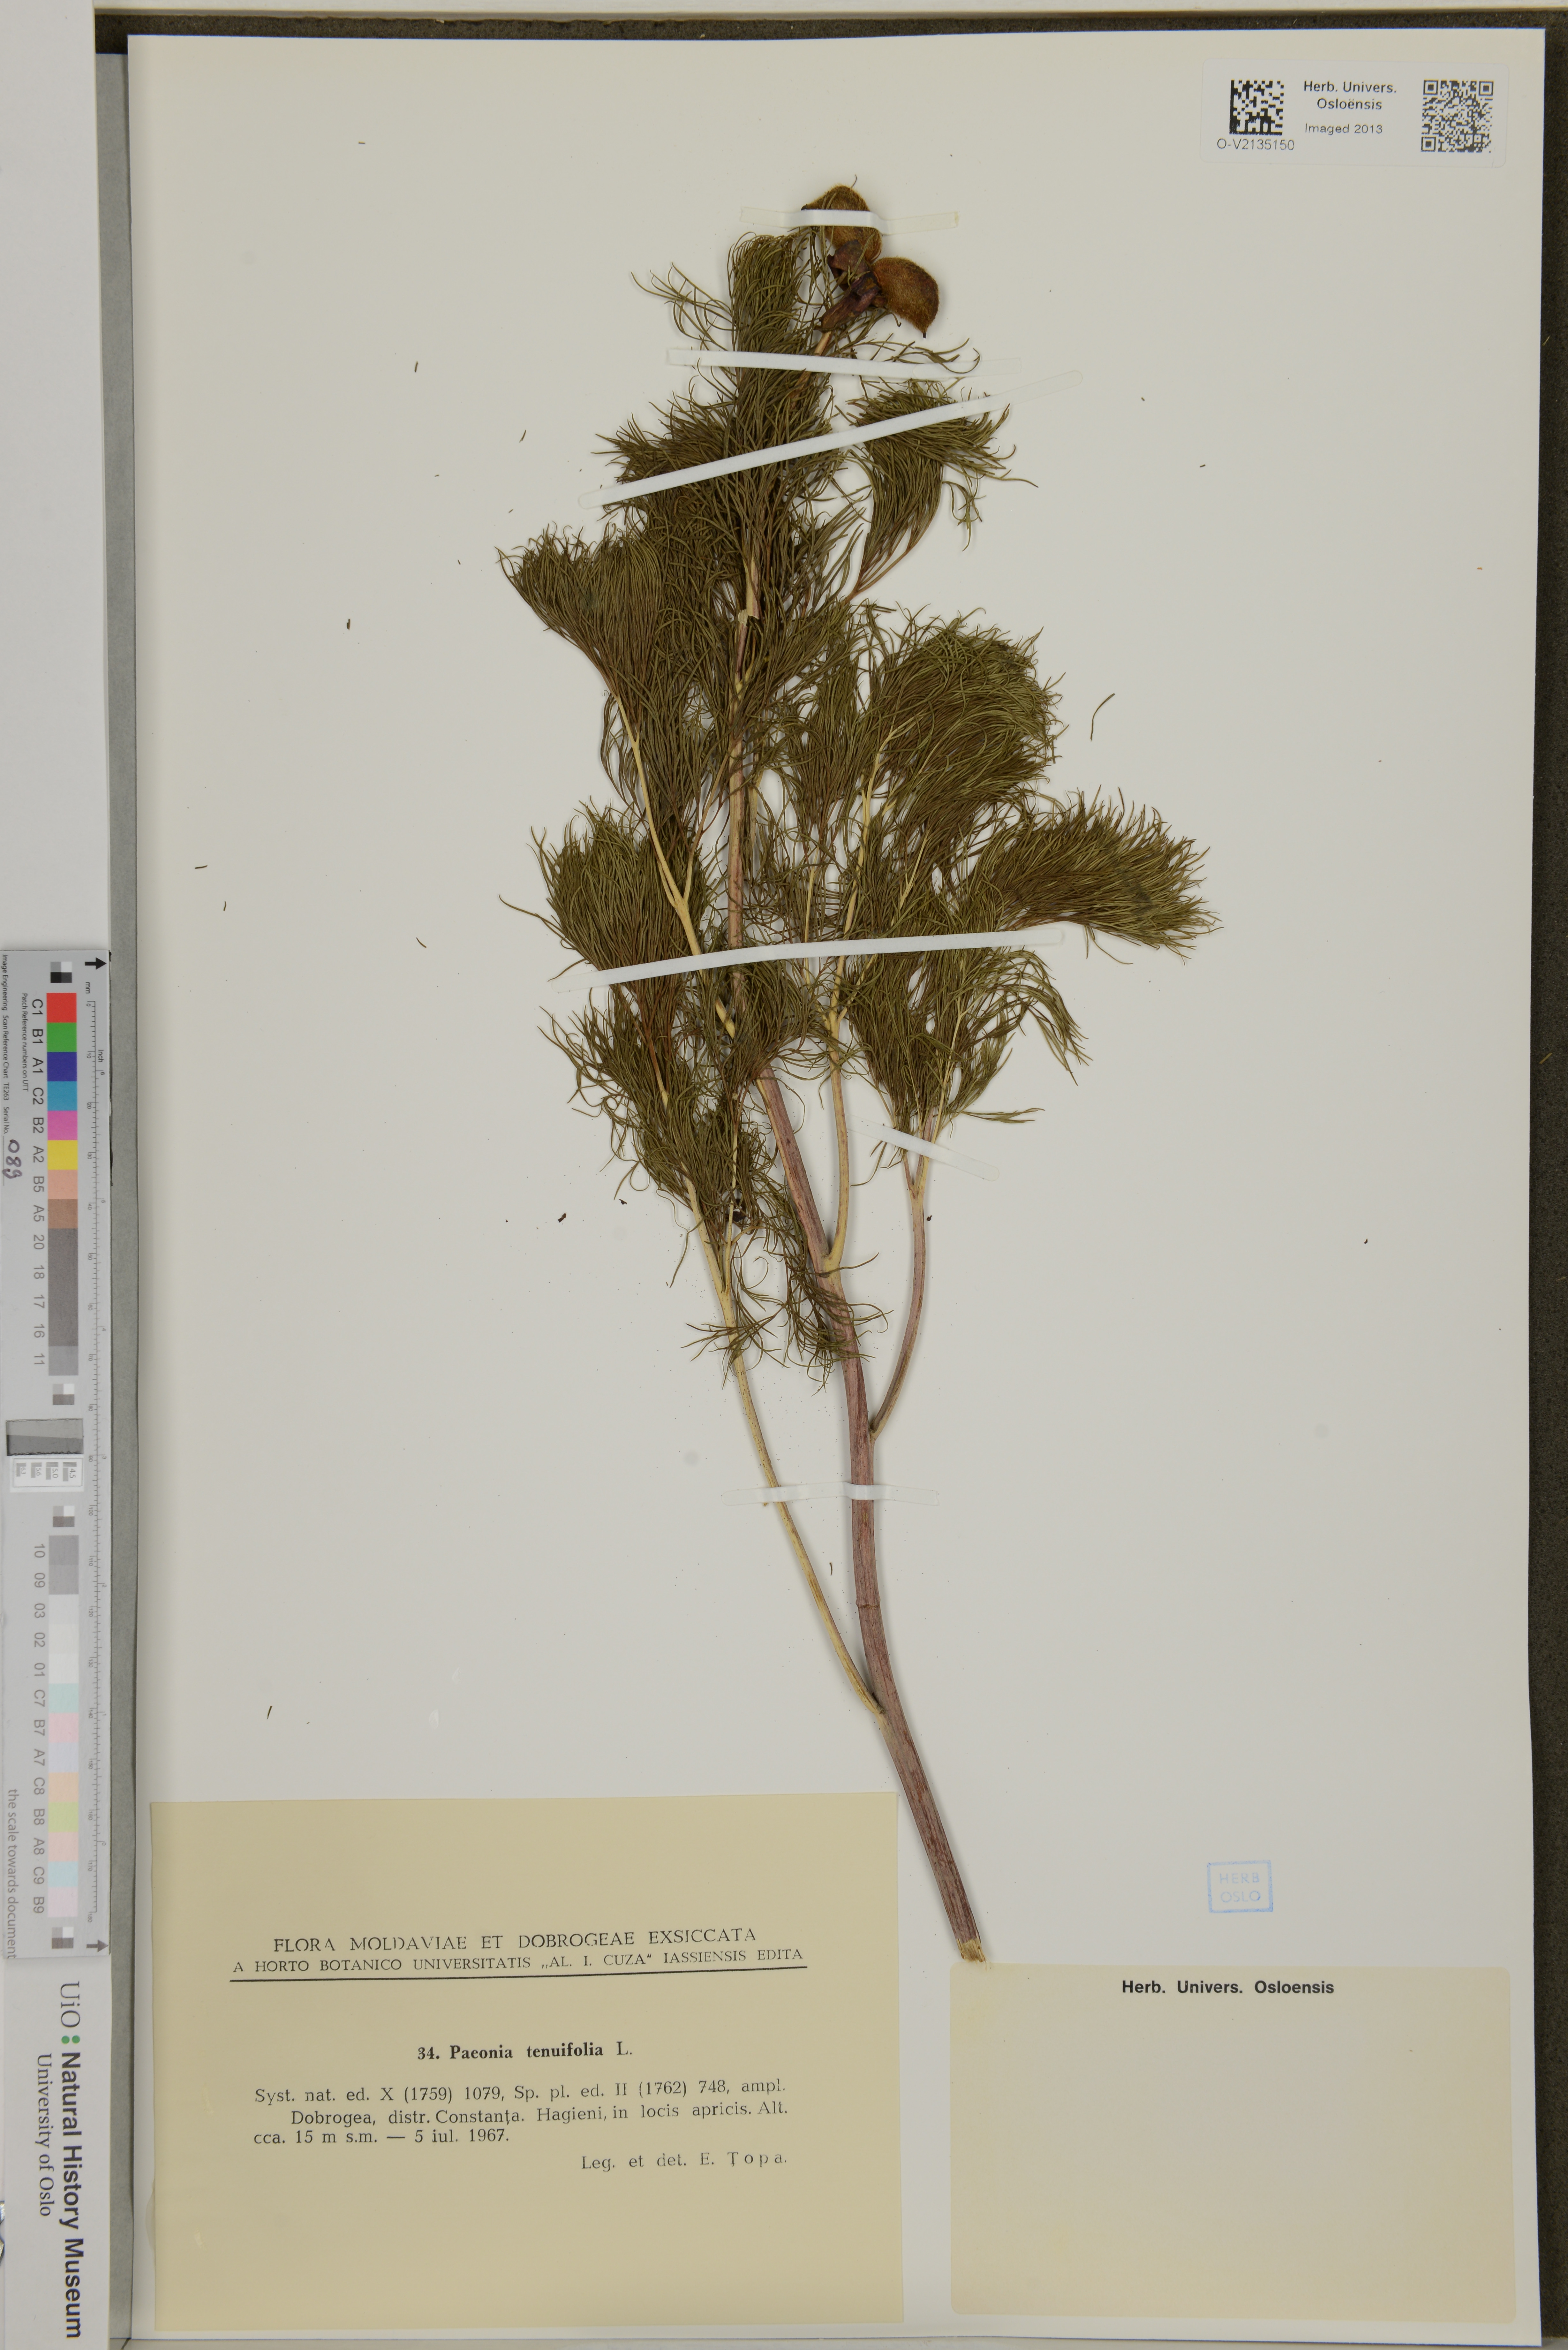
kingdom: Plantae
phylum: Tracheophyta
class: Magnoliopsida
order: Saxifragales
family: Paeoniaceae
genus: Paeonia
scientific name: Paeonia tenuifolia
